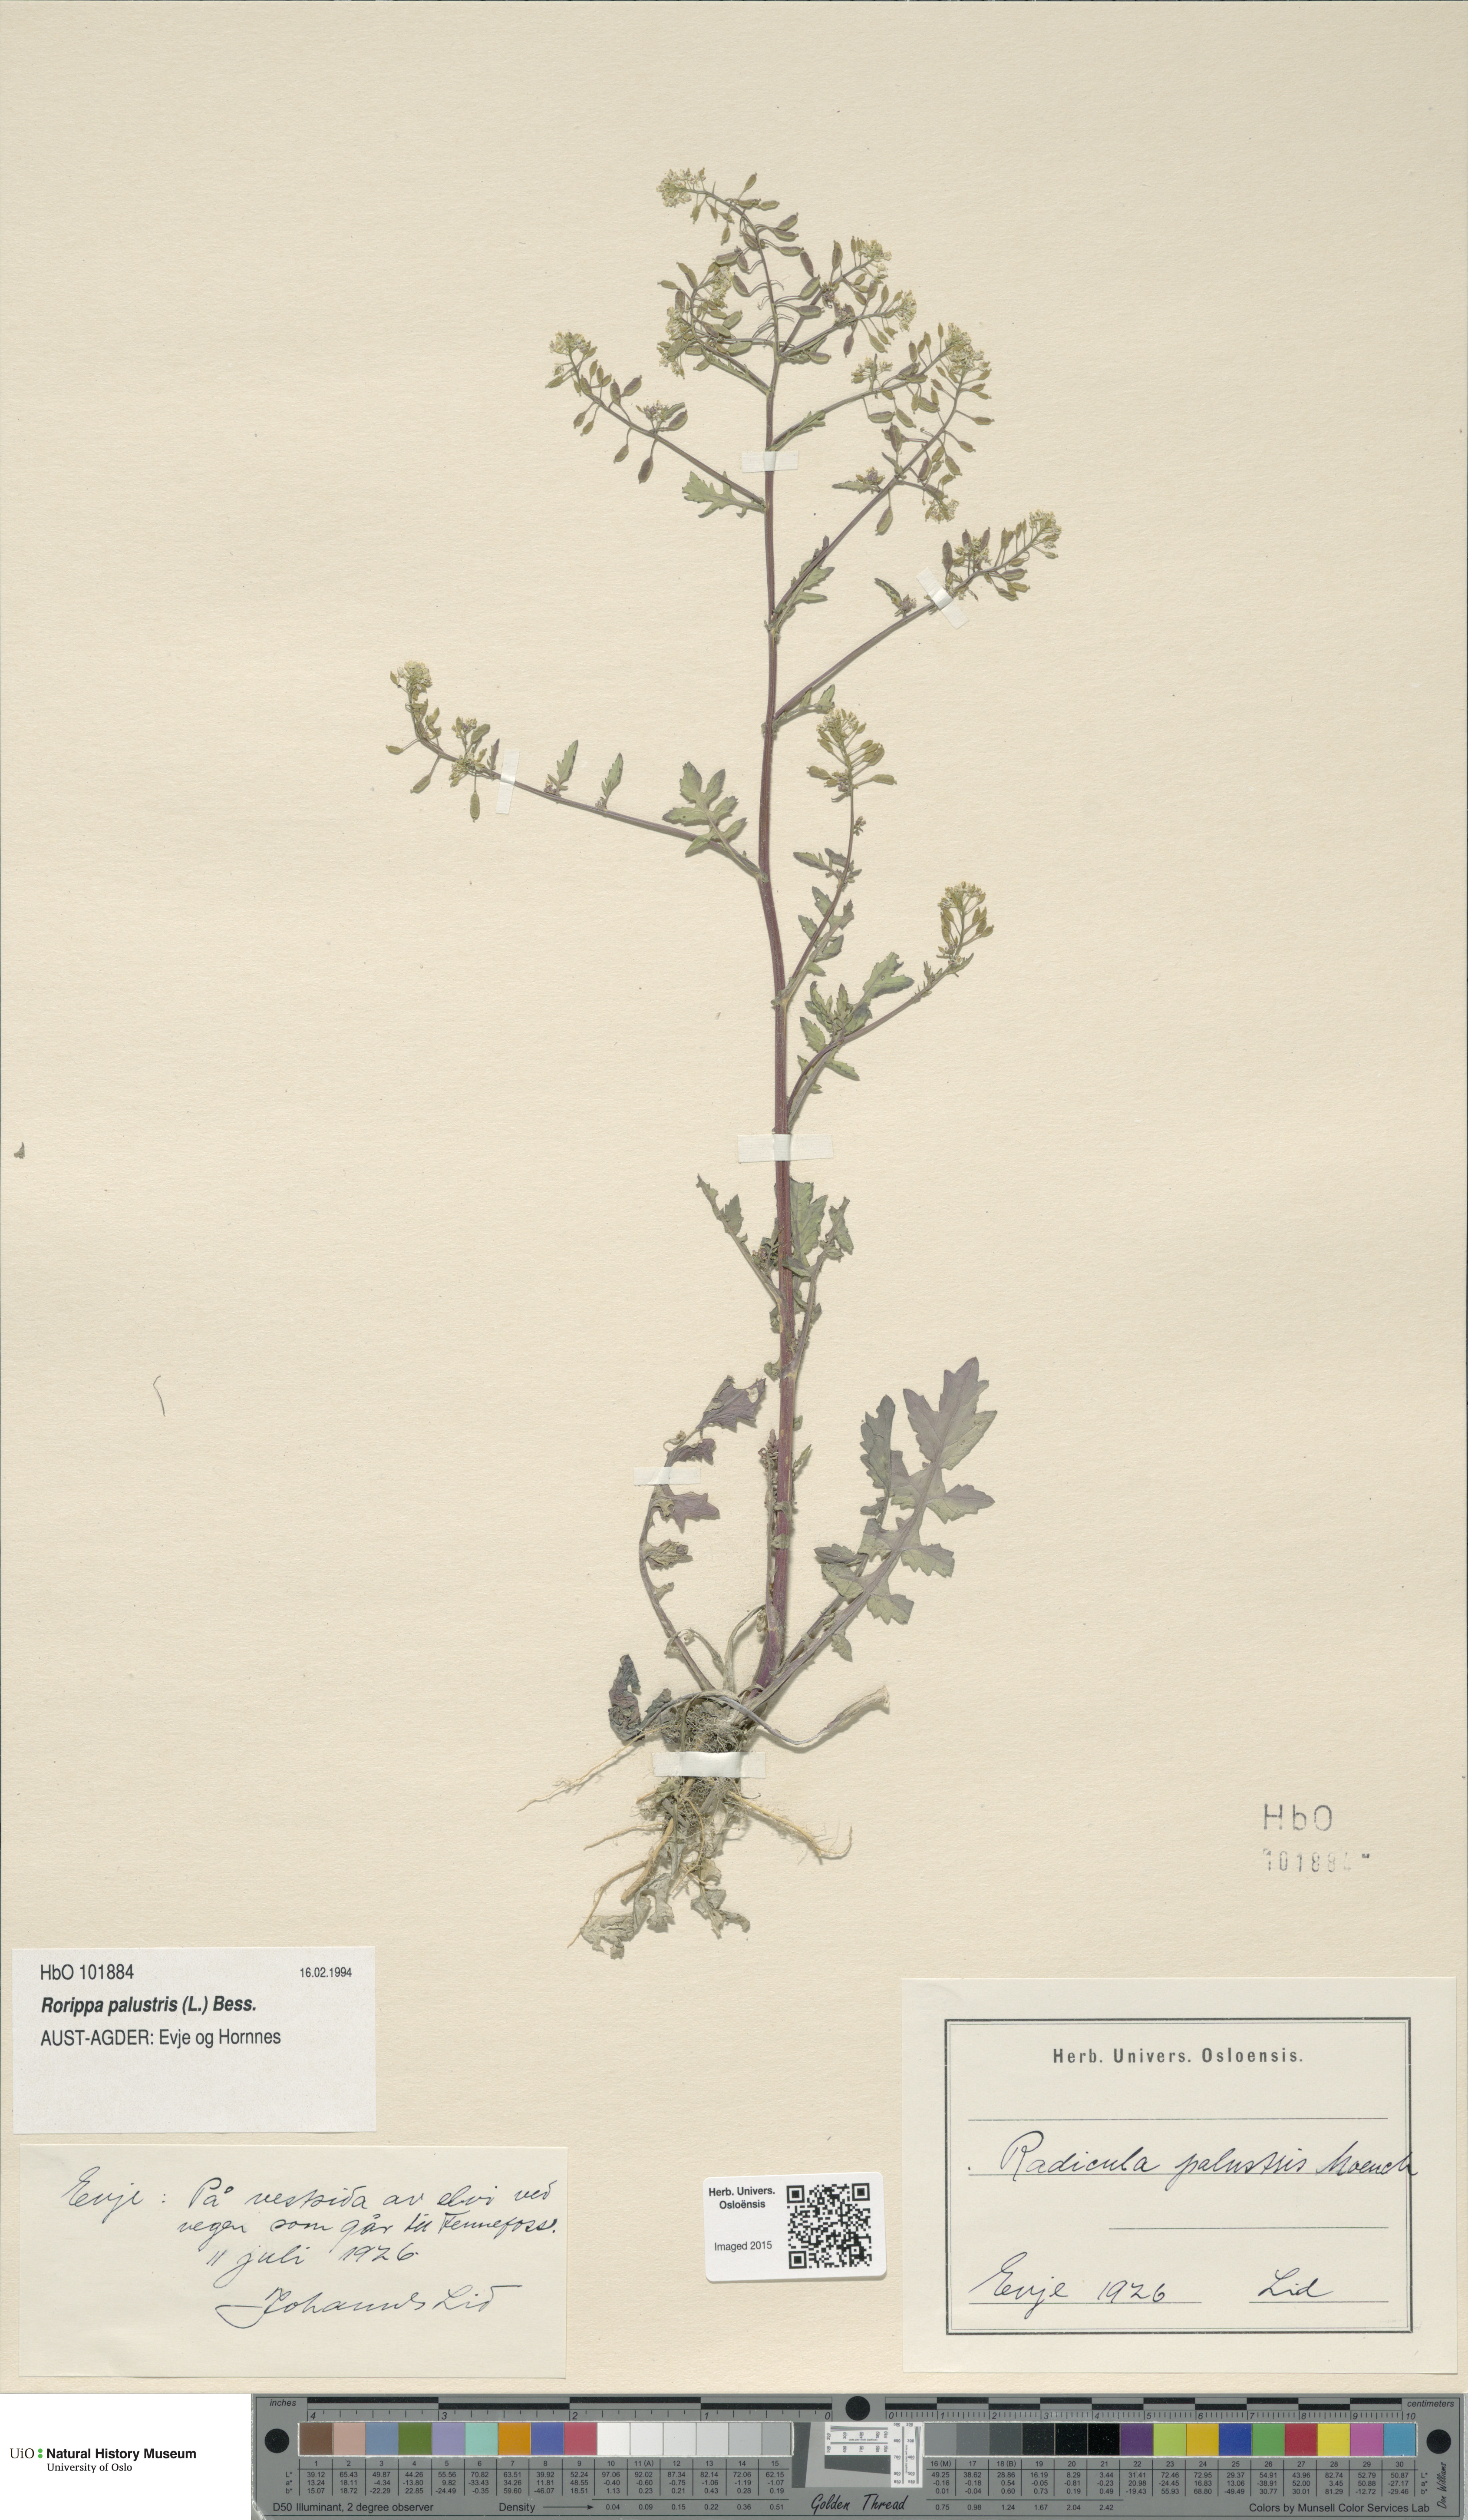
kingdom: Plantae
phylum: Tracheophyta
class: Magnoliopsida
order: Brassicales
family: Brassicaceae
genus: Rorippa
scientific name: Rorippa palustris
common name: Marsh yellow-cress
